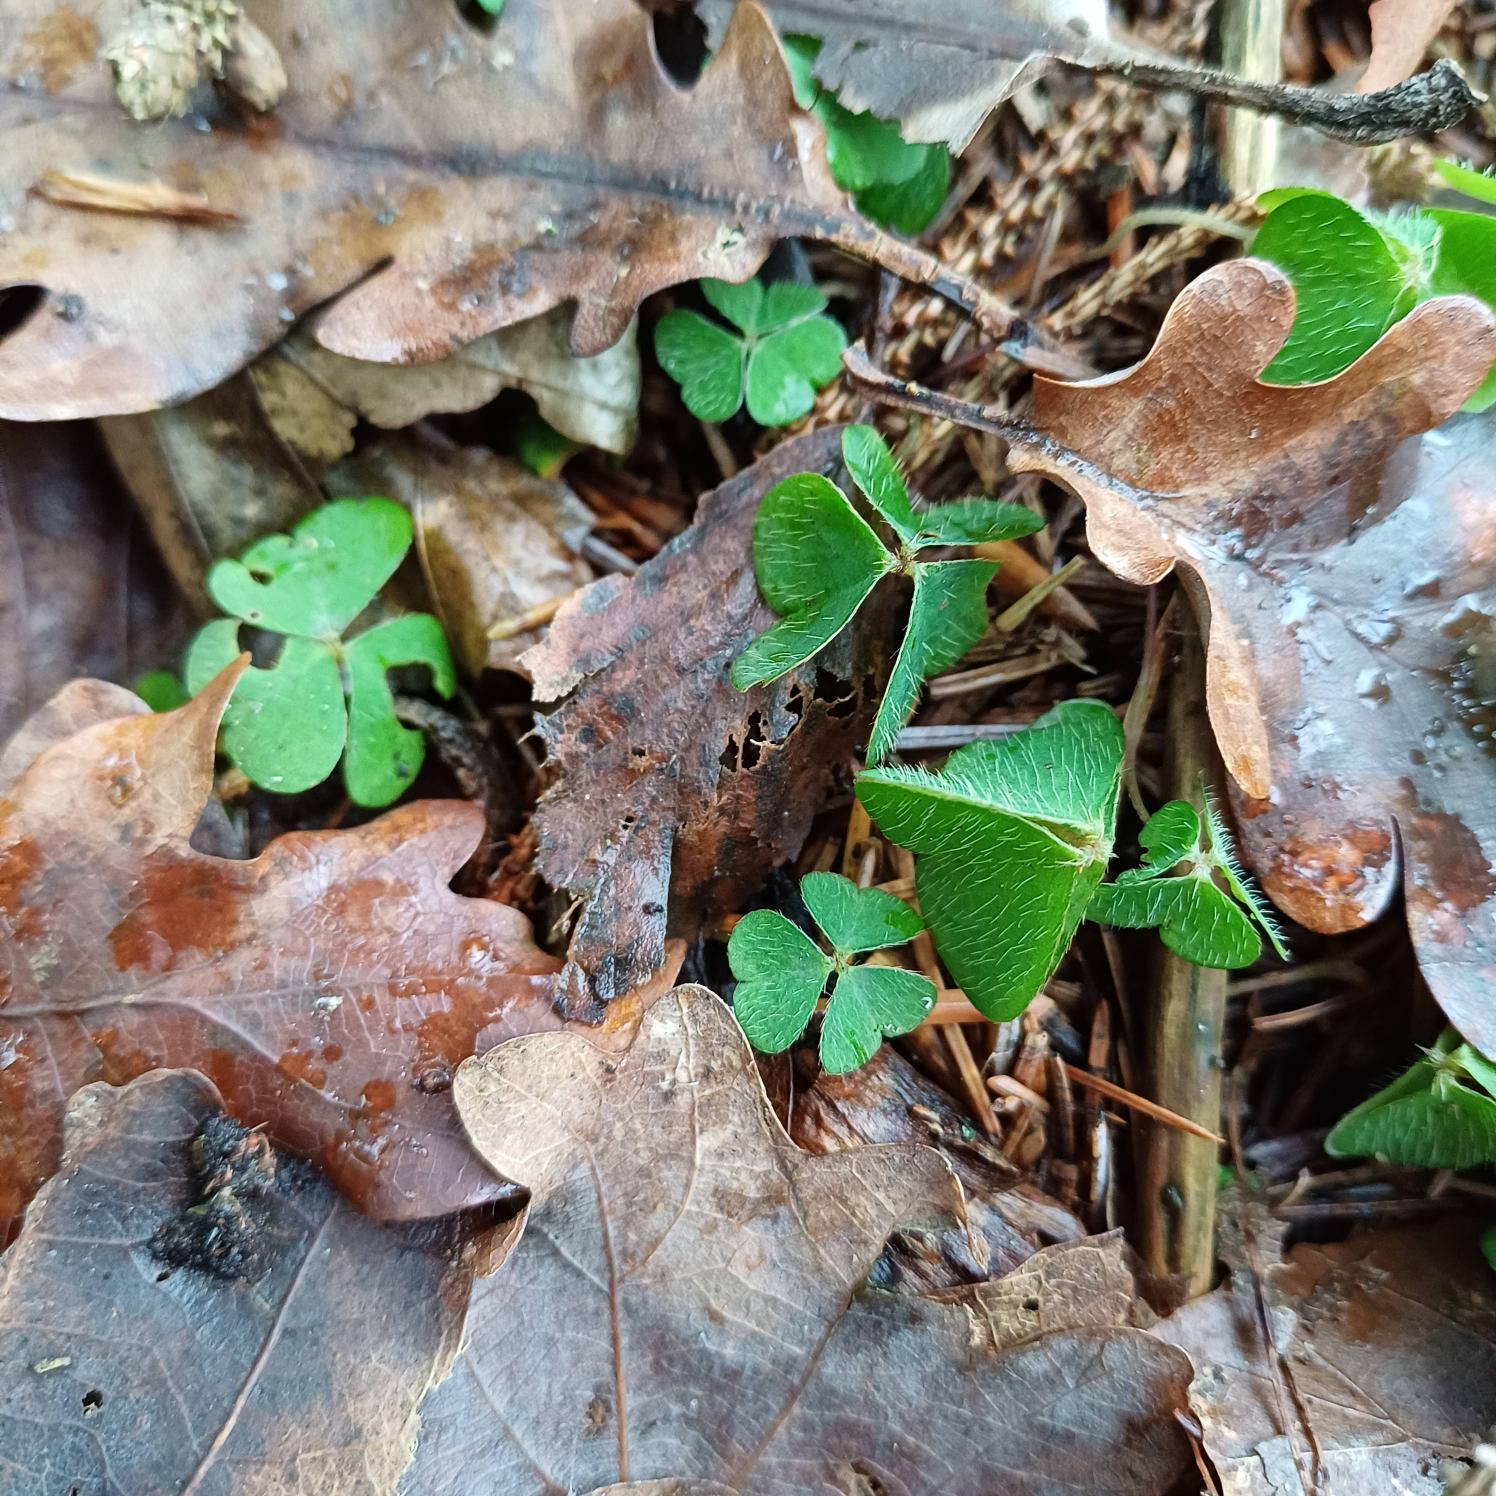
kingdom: Plantae
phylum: Tracheophyta
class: Magnoliopsida
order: Oxalidales
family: Oxalidaceae
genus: Oxalis
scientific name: Oxalis acetosella
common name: Skovsyre
